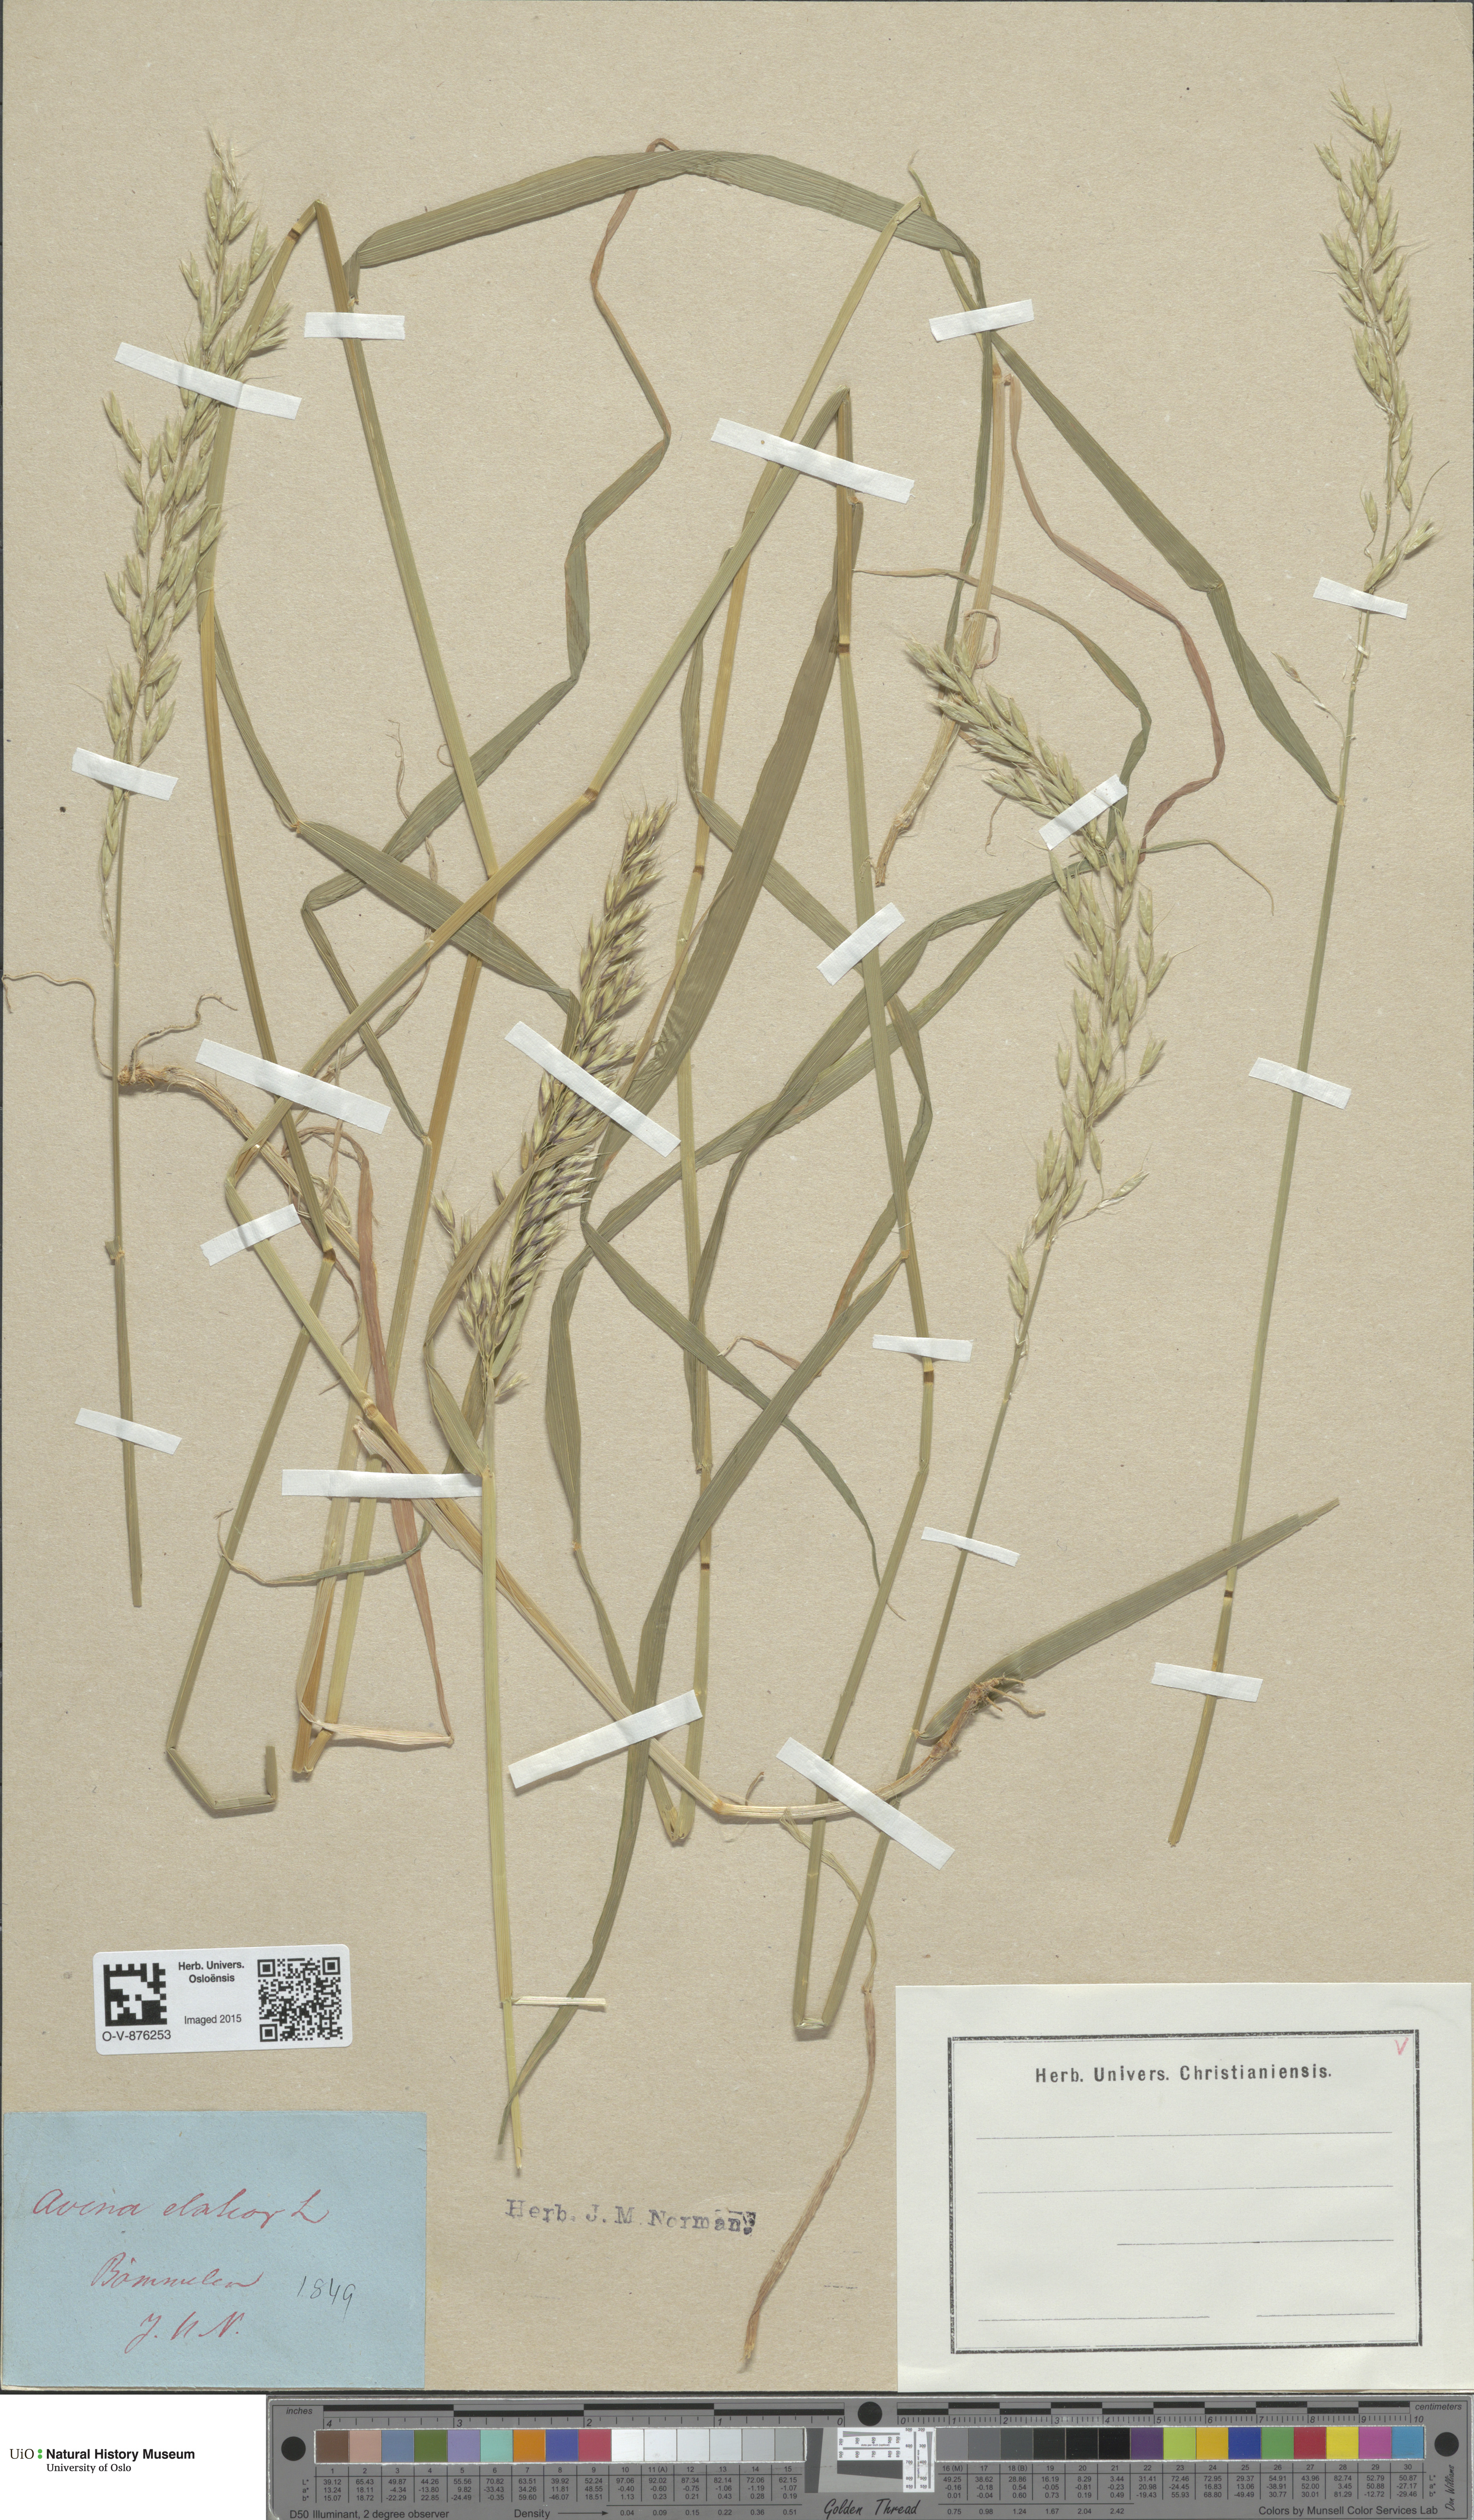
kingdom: Plantae
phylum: Tracheophyta
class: Liliopsida
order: Poales
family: Poaceae
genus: Arrhenatherum
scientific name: Arrhenatherum elatius
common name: Tall oatgrass
